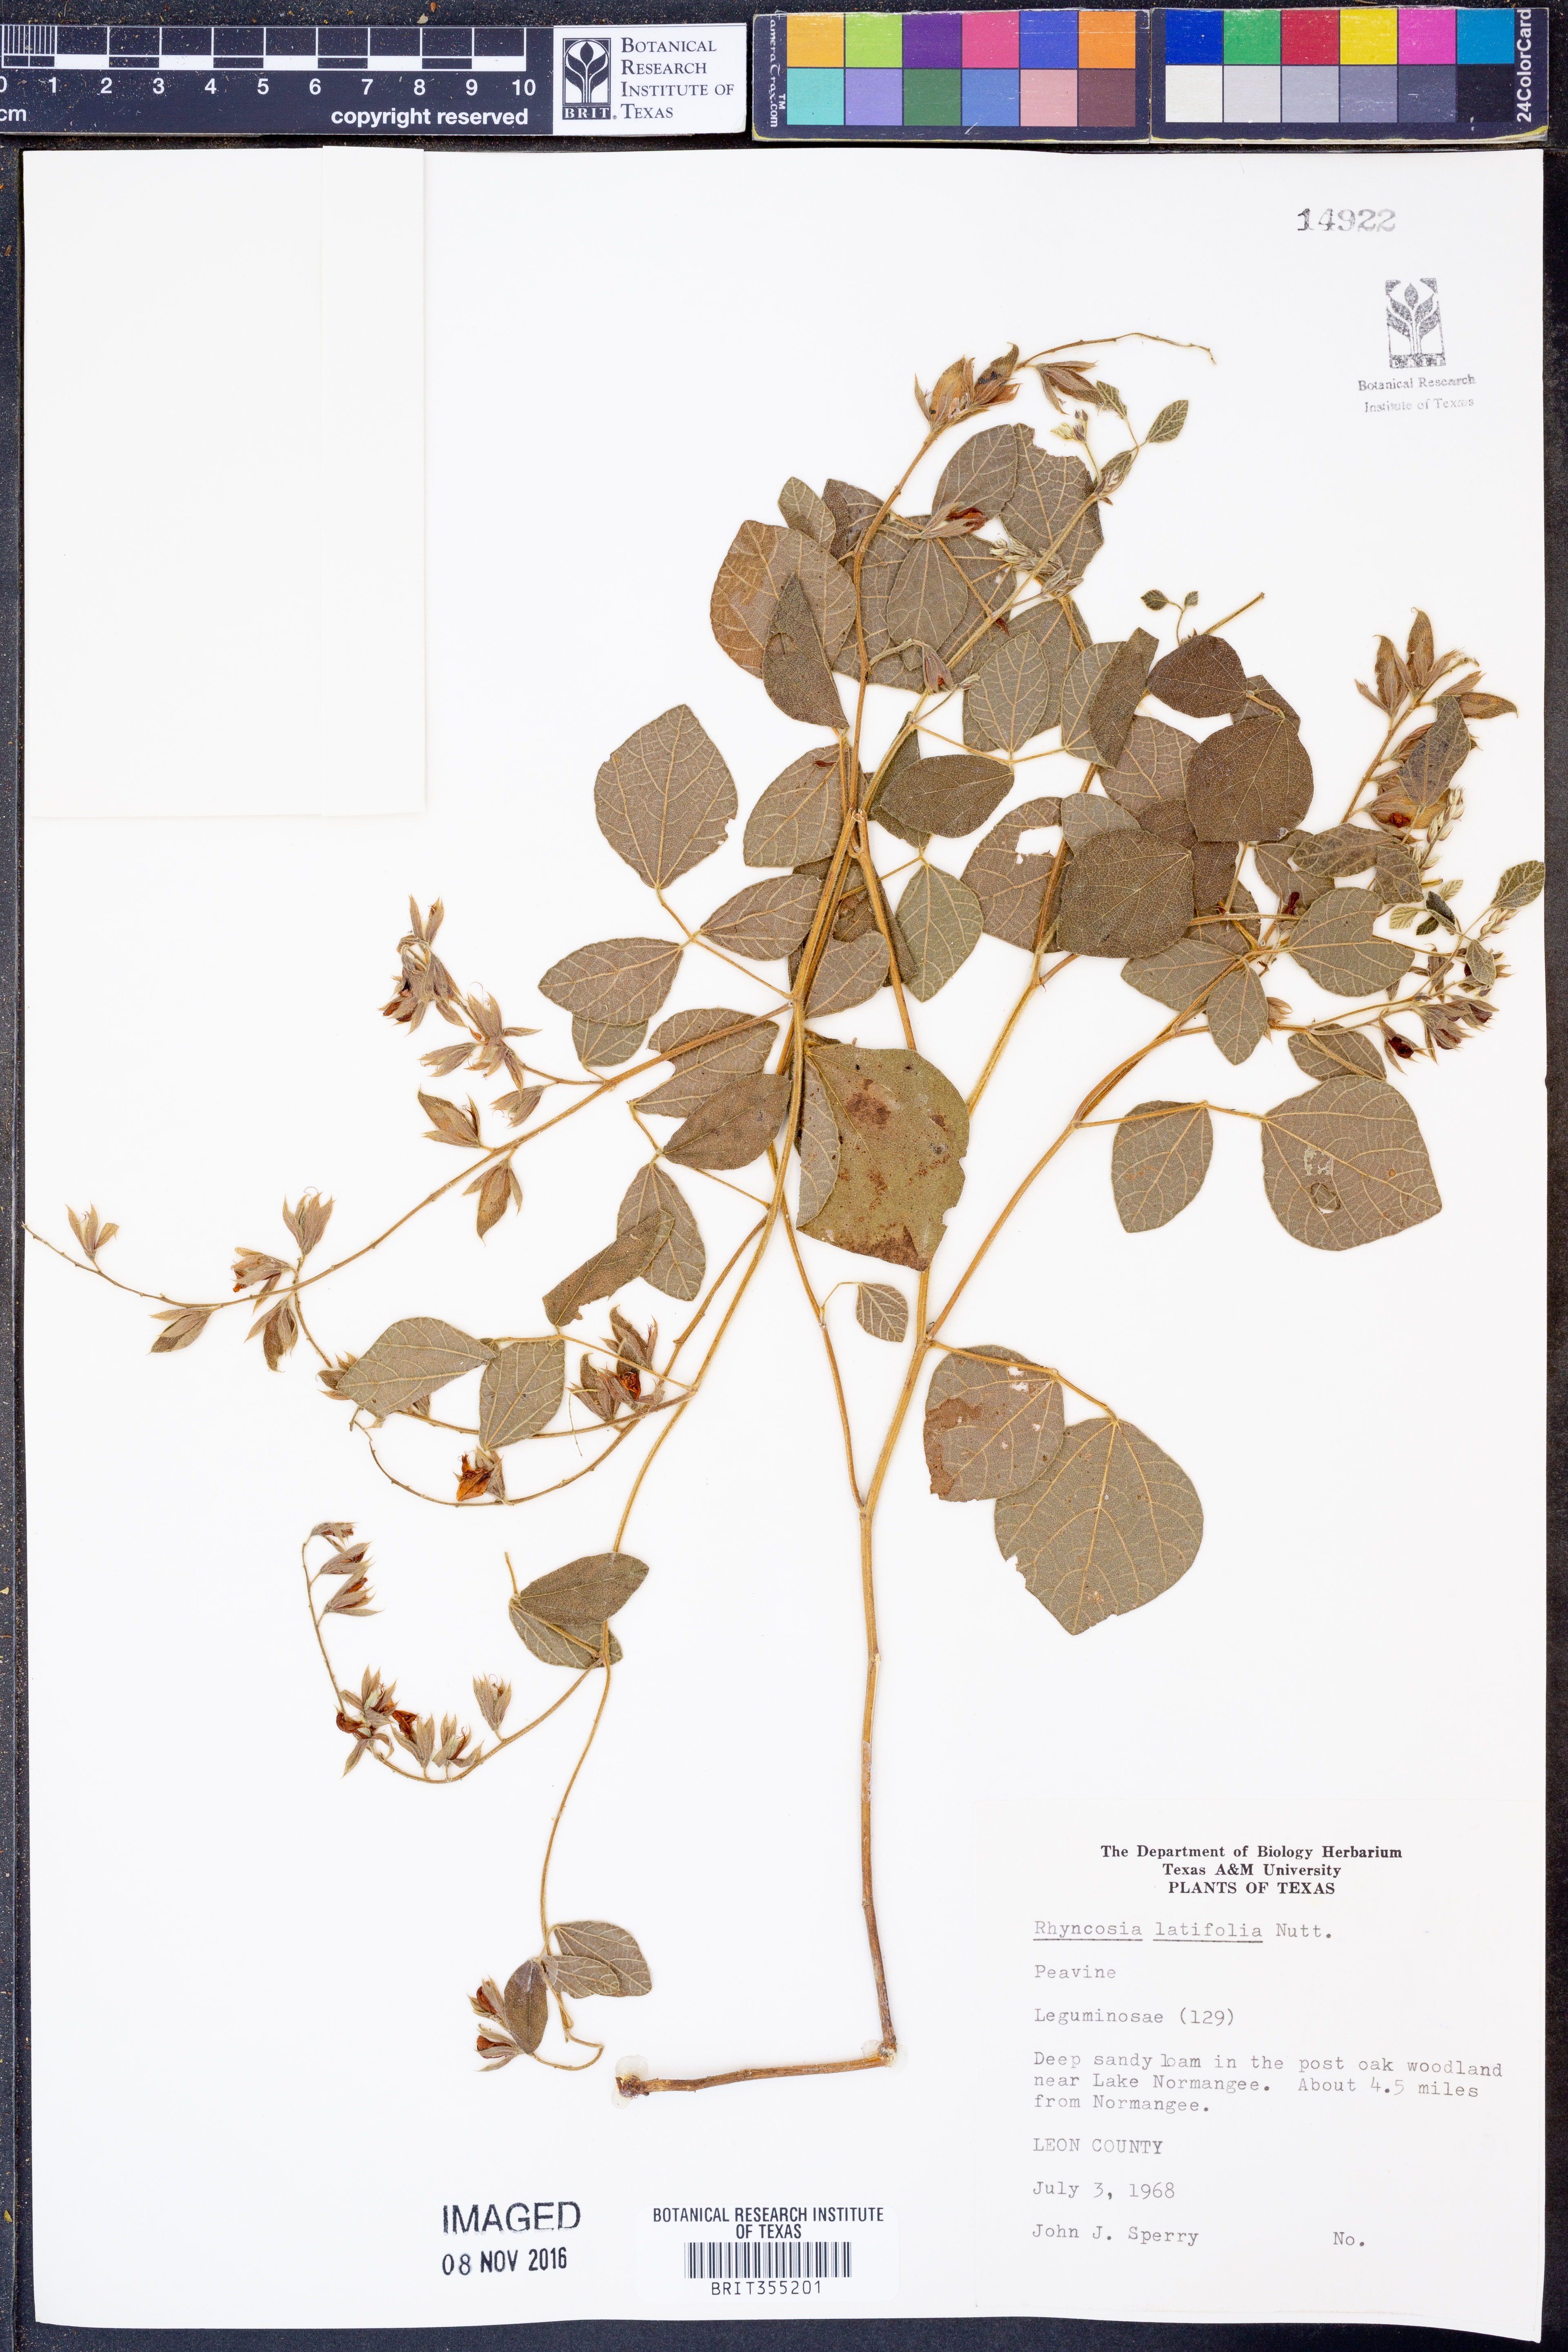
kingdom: Plantae
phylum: Tracheophyta
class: Magnoliopsida
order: Fabales
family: Fabaceae
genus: Rhynchosia
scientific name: Rhynchosia latifolia
